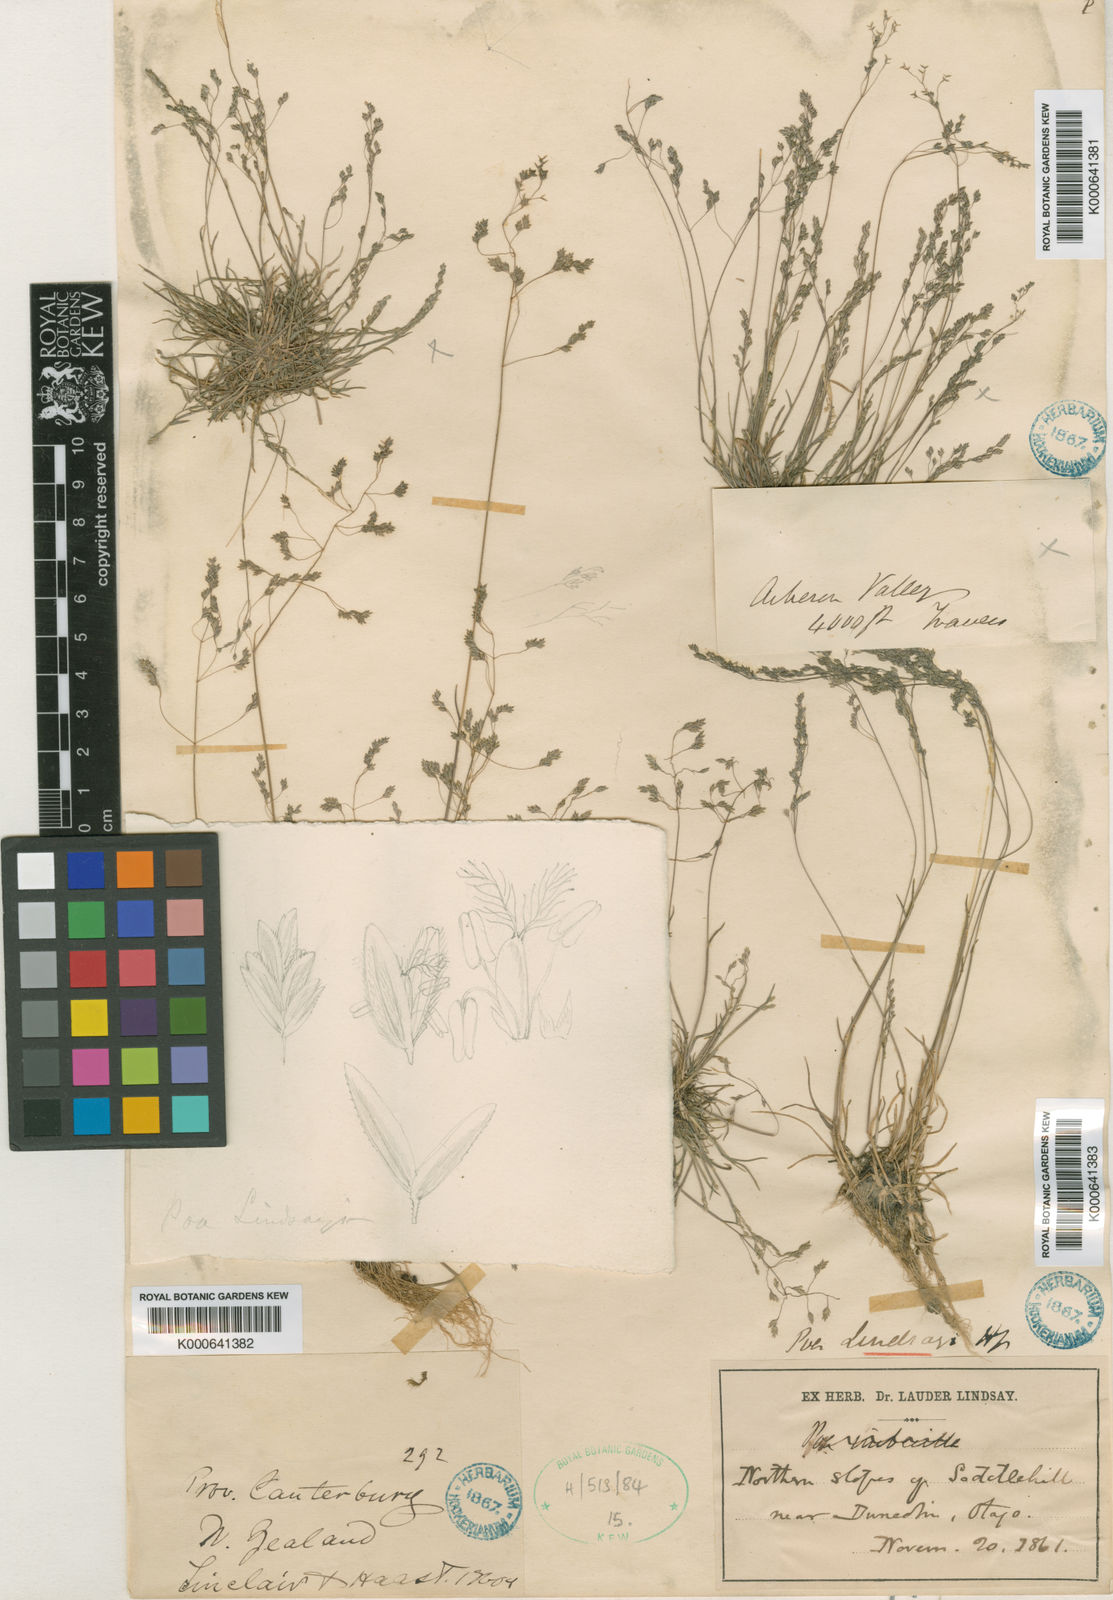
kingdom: Plantae
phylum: Tracheophyta
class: Liliopsida
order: Poales
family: Poaceae
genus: Poa
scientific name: Poa lindsayi
